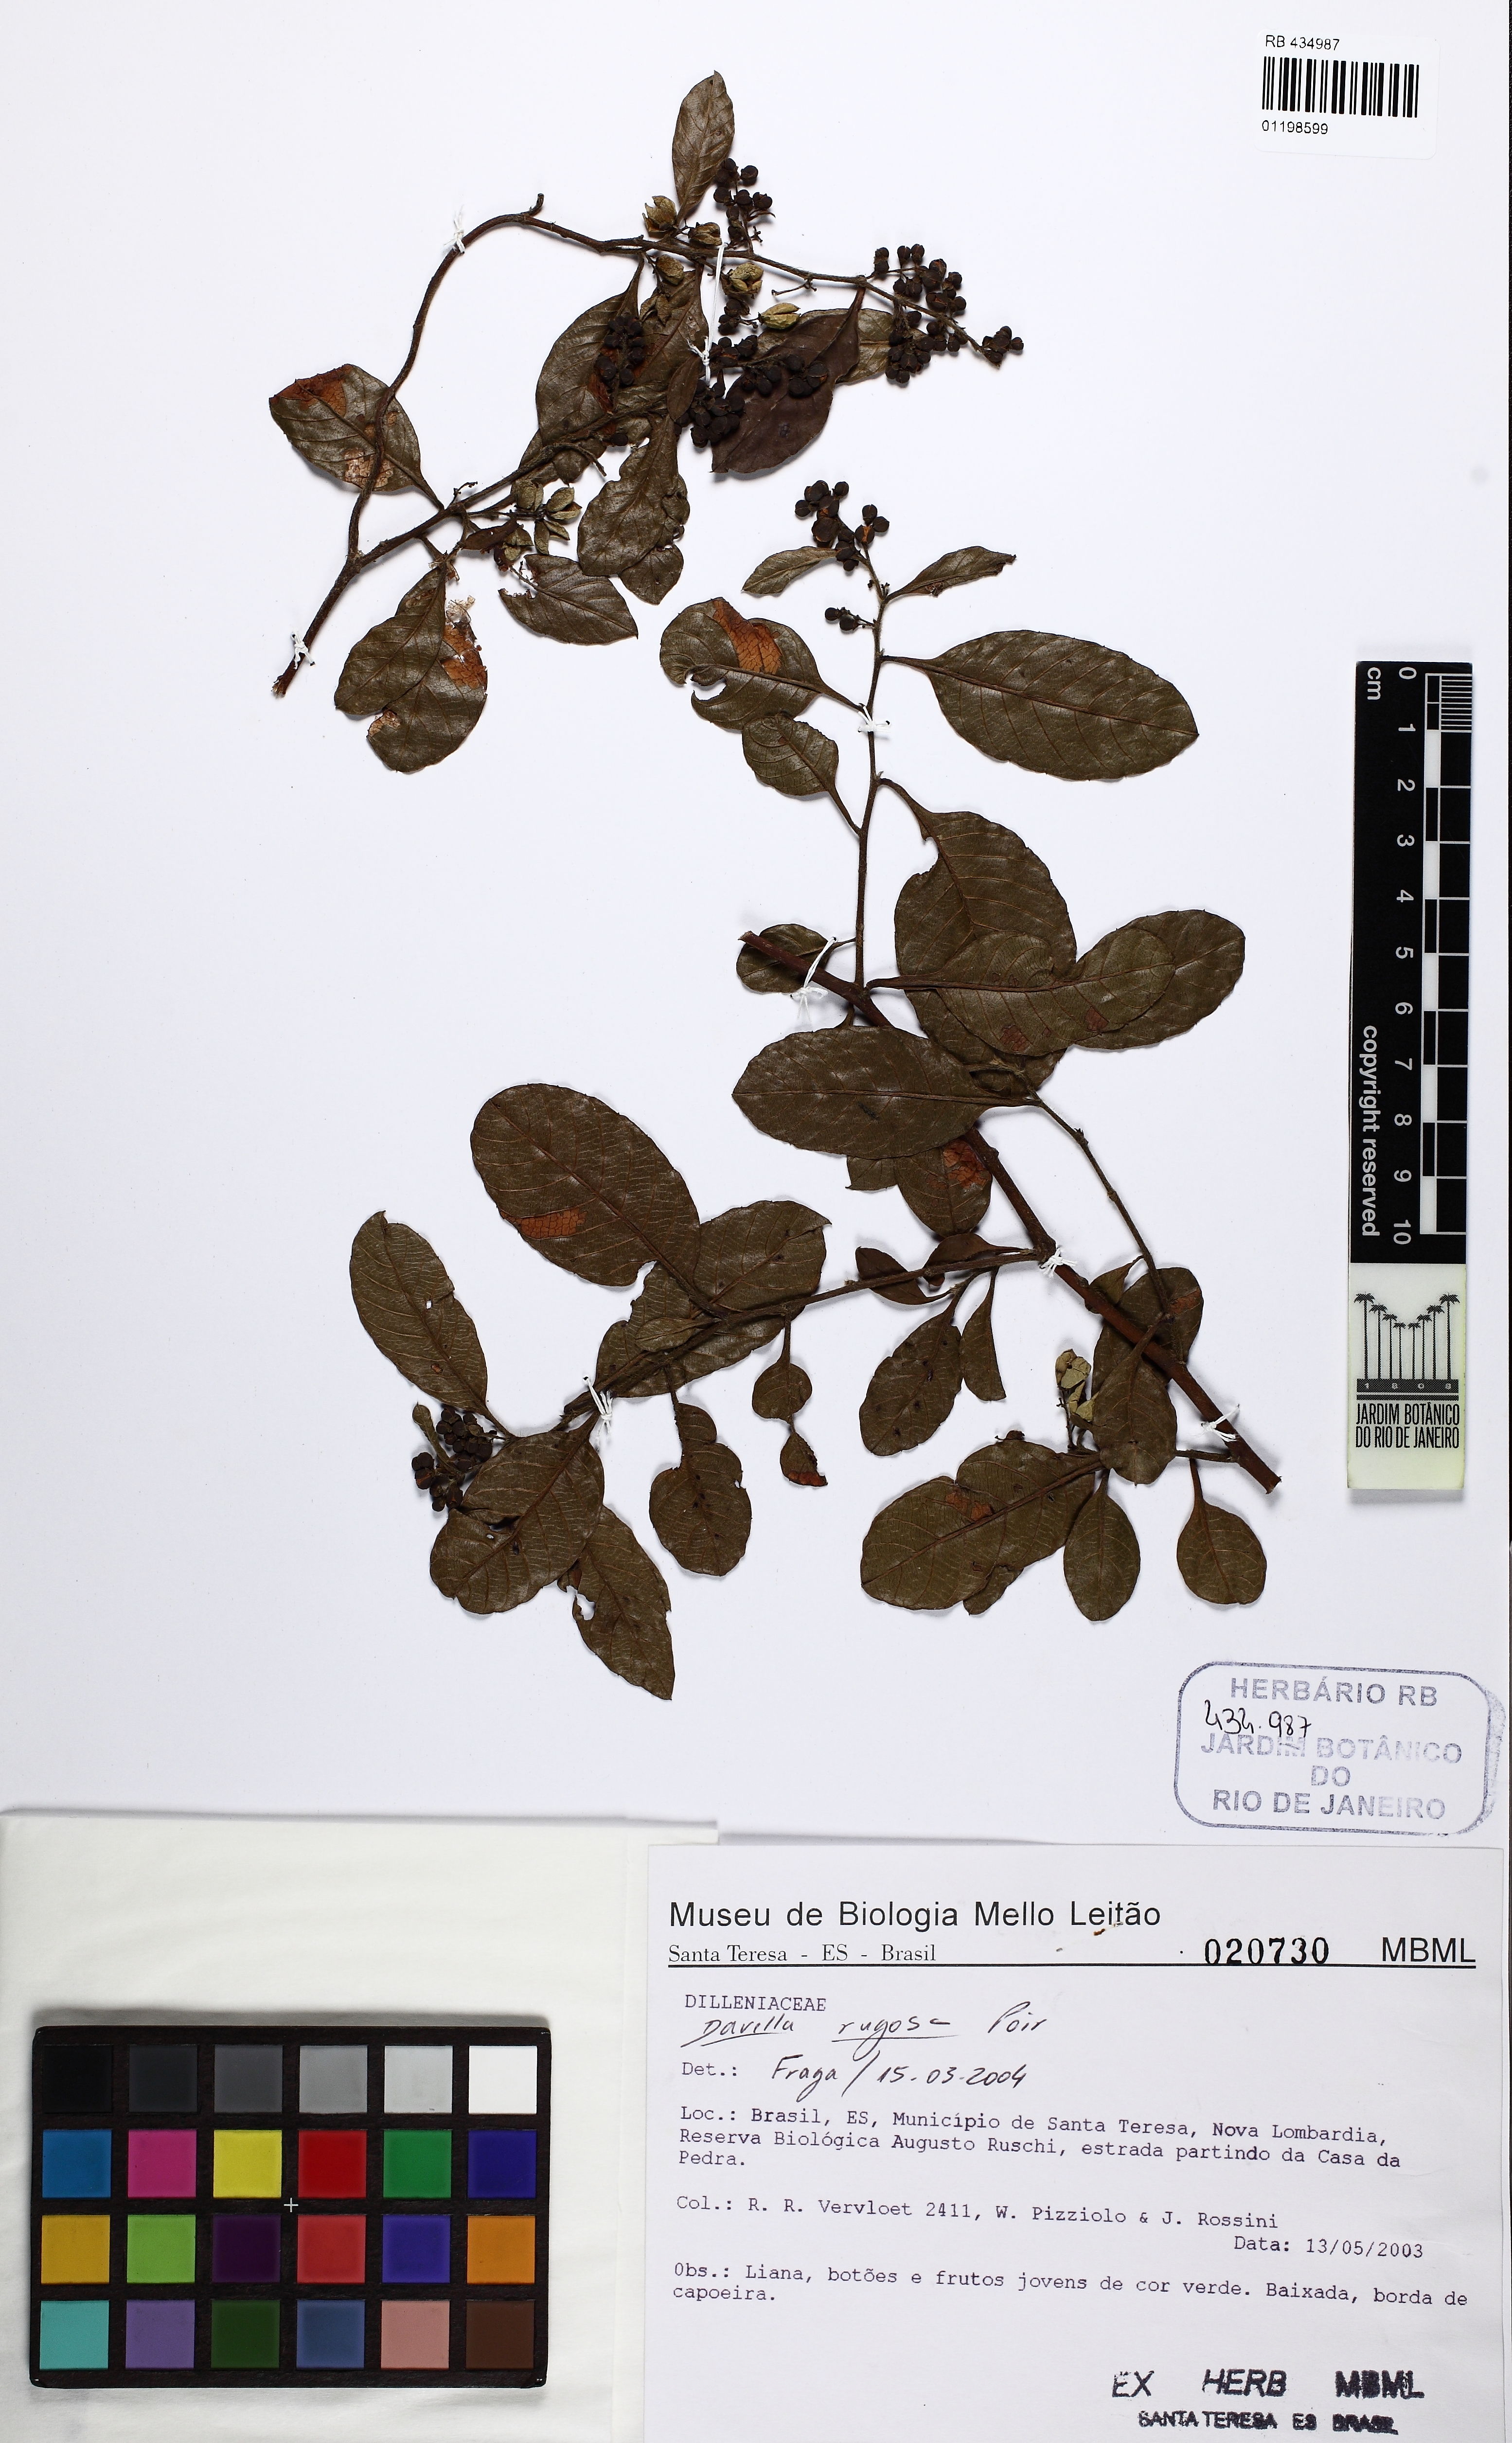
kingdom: Plantae
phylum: Tracheophyta
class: Magnoliopsida
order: Dilleniales
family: Dilleniaceae
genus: Davilla
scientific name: Davilla rugosa
